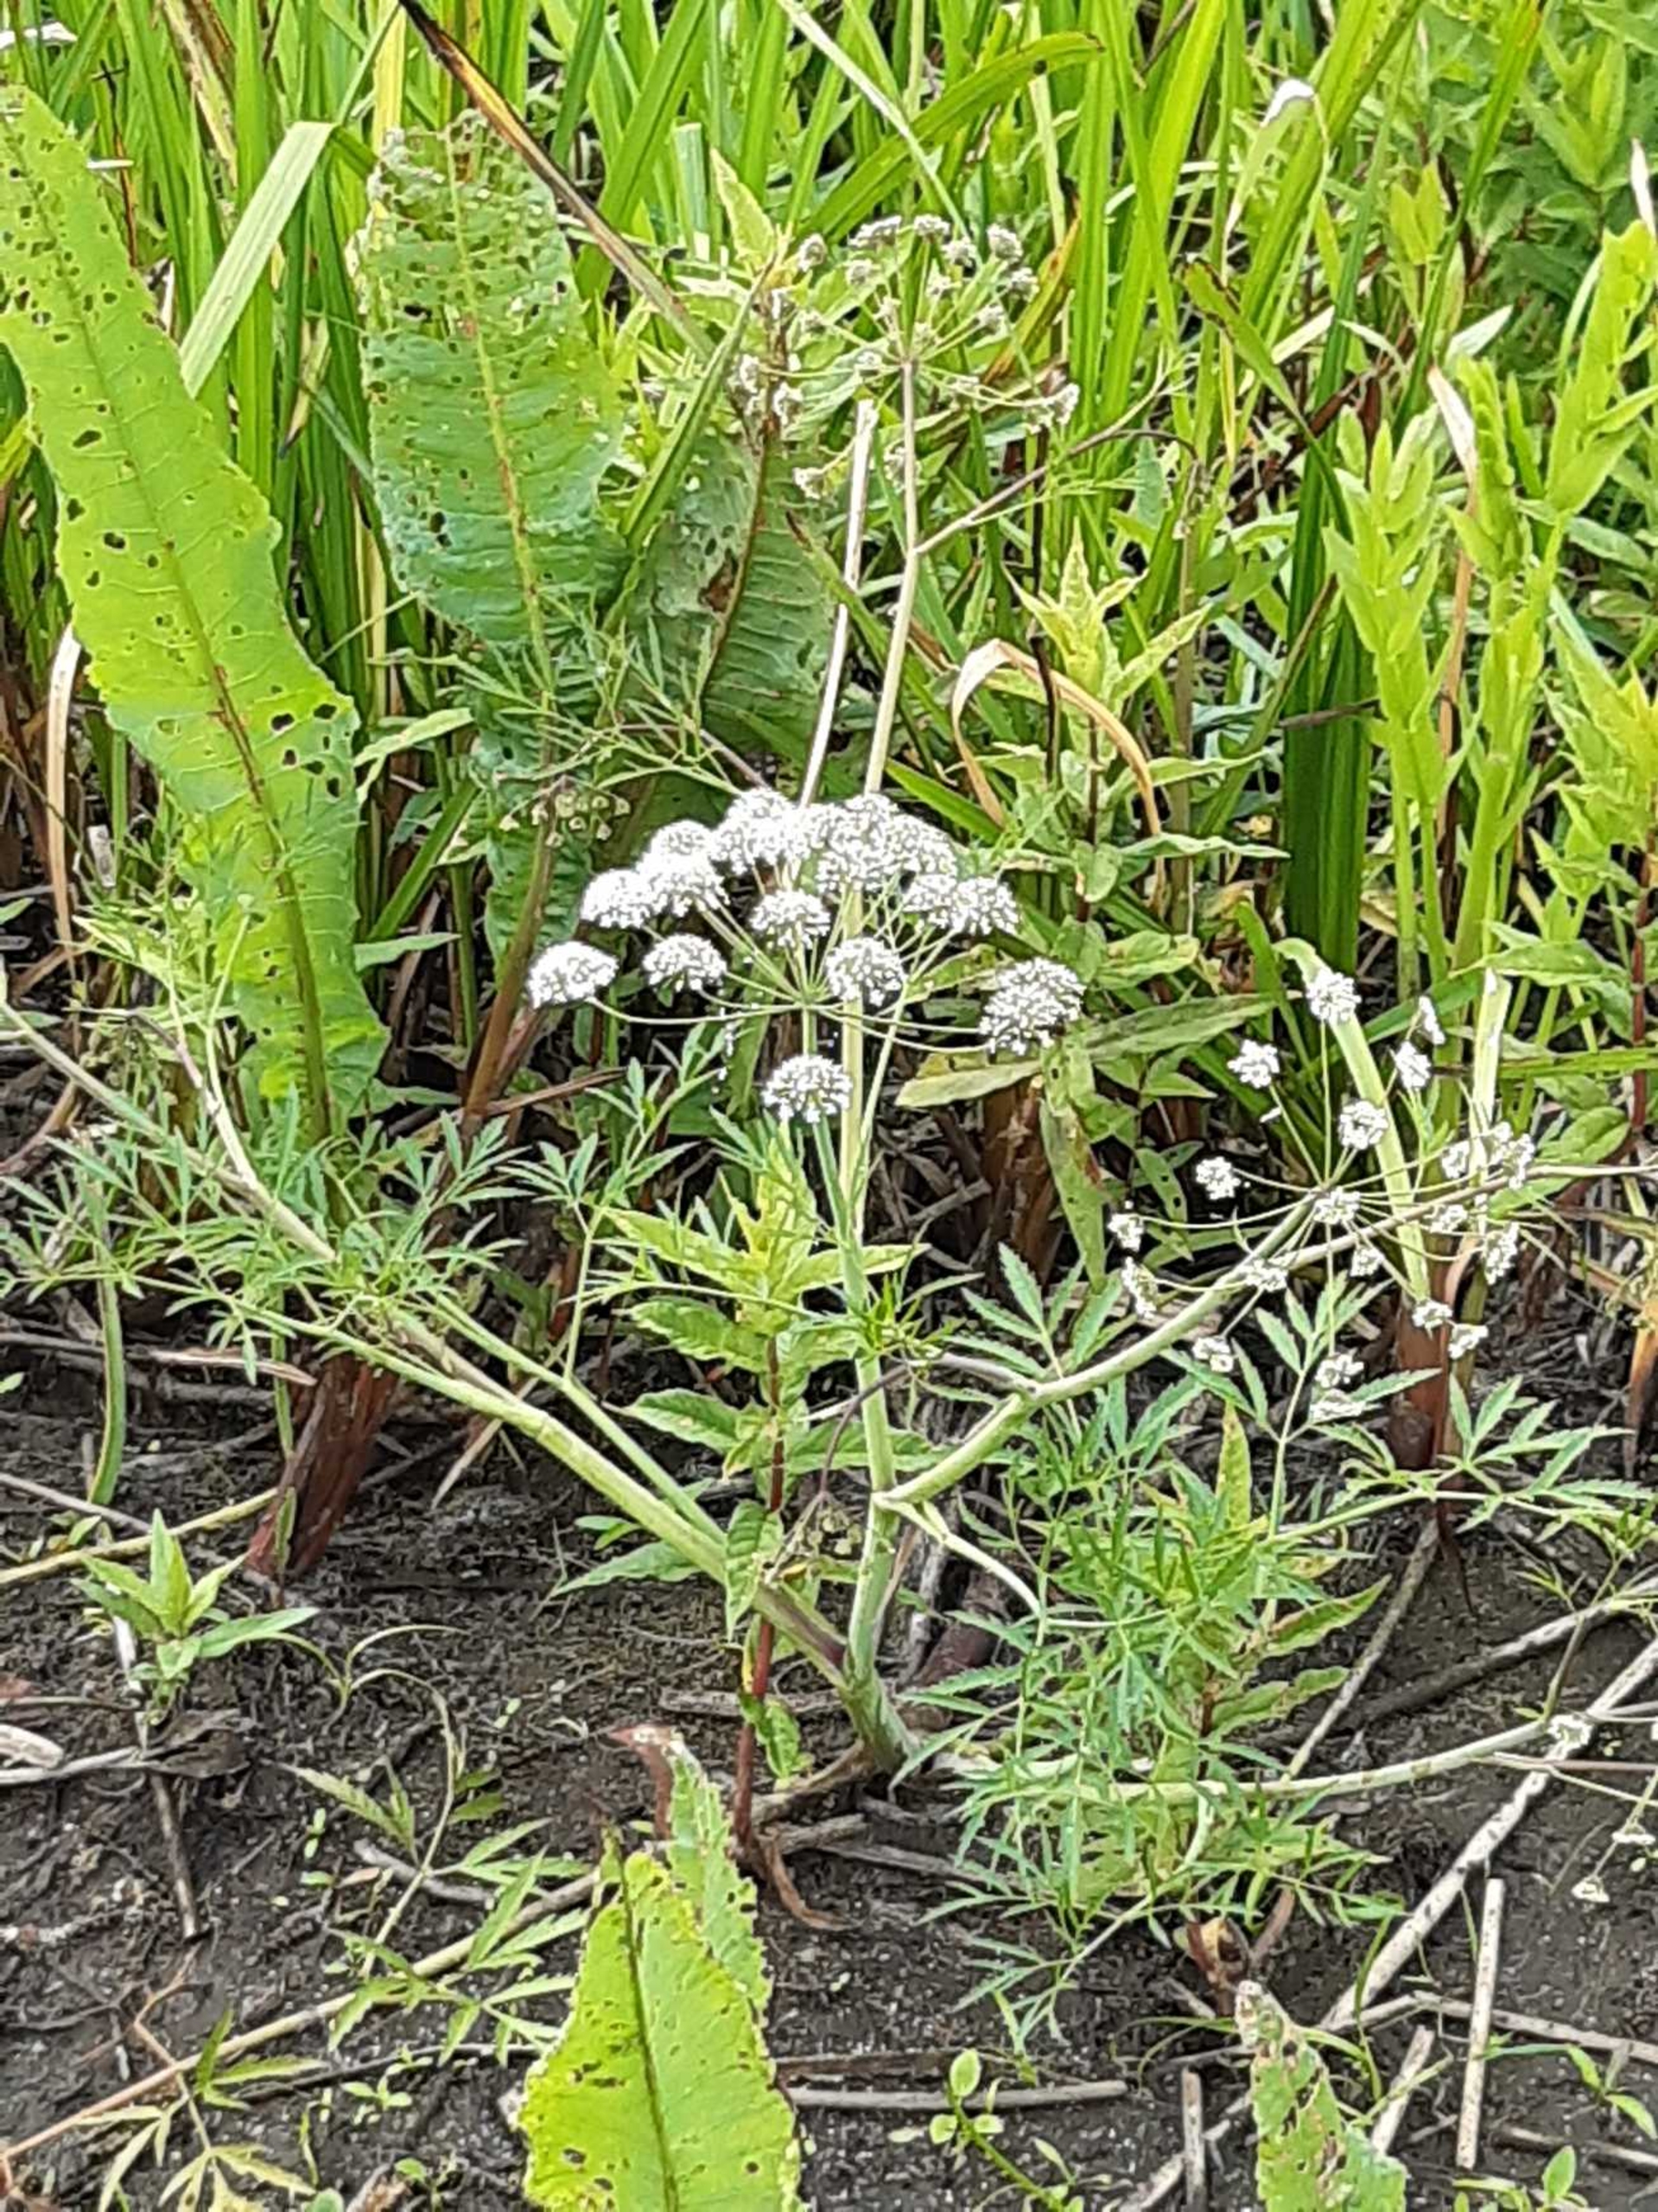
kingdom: Plantae
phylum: Tracheophyta
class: Magnoliopsida
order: Apiales
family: Apiaceae
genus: Cicuta
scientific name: Cicuta virosa
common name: Gifttyde
